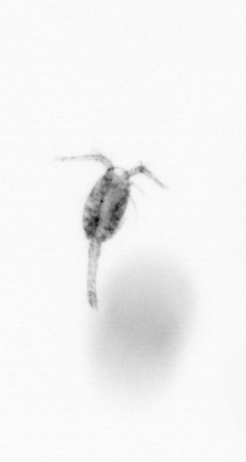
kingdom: Animalia
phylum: Arthropoda
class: Copepoda
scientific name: Copepoda
